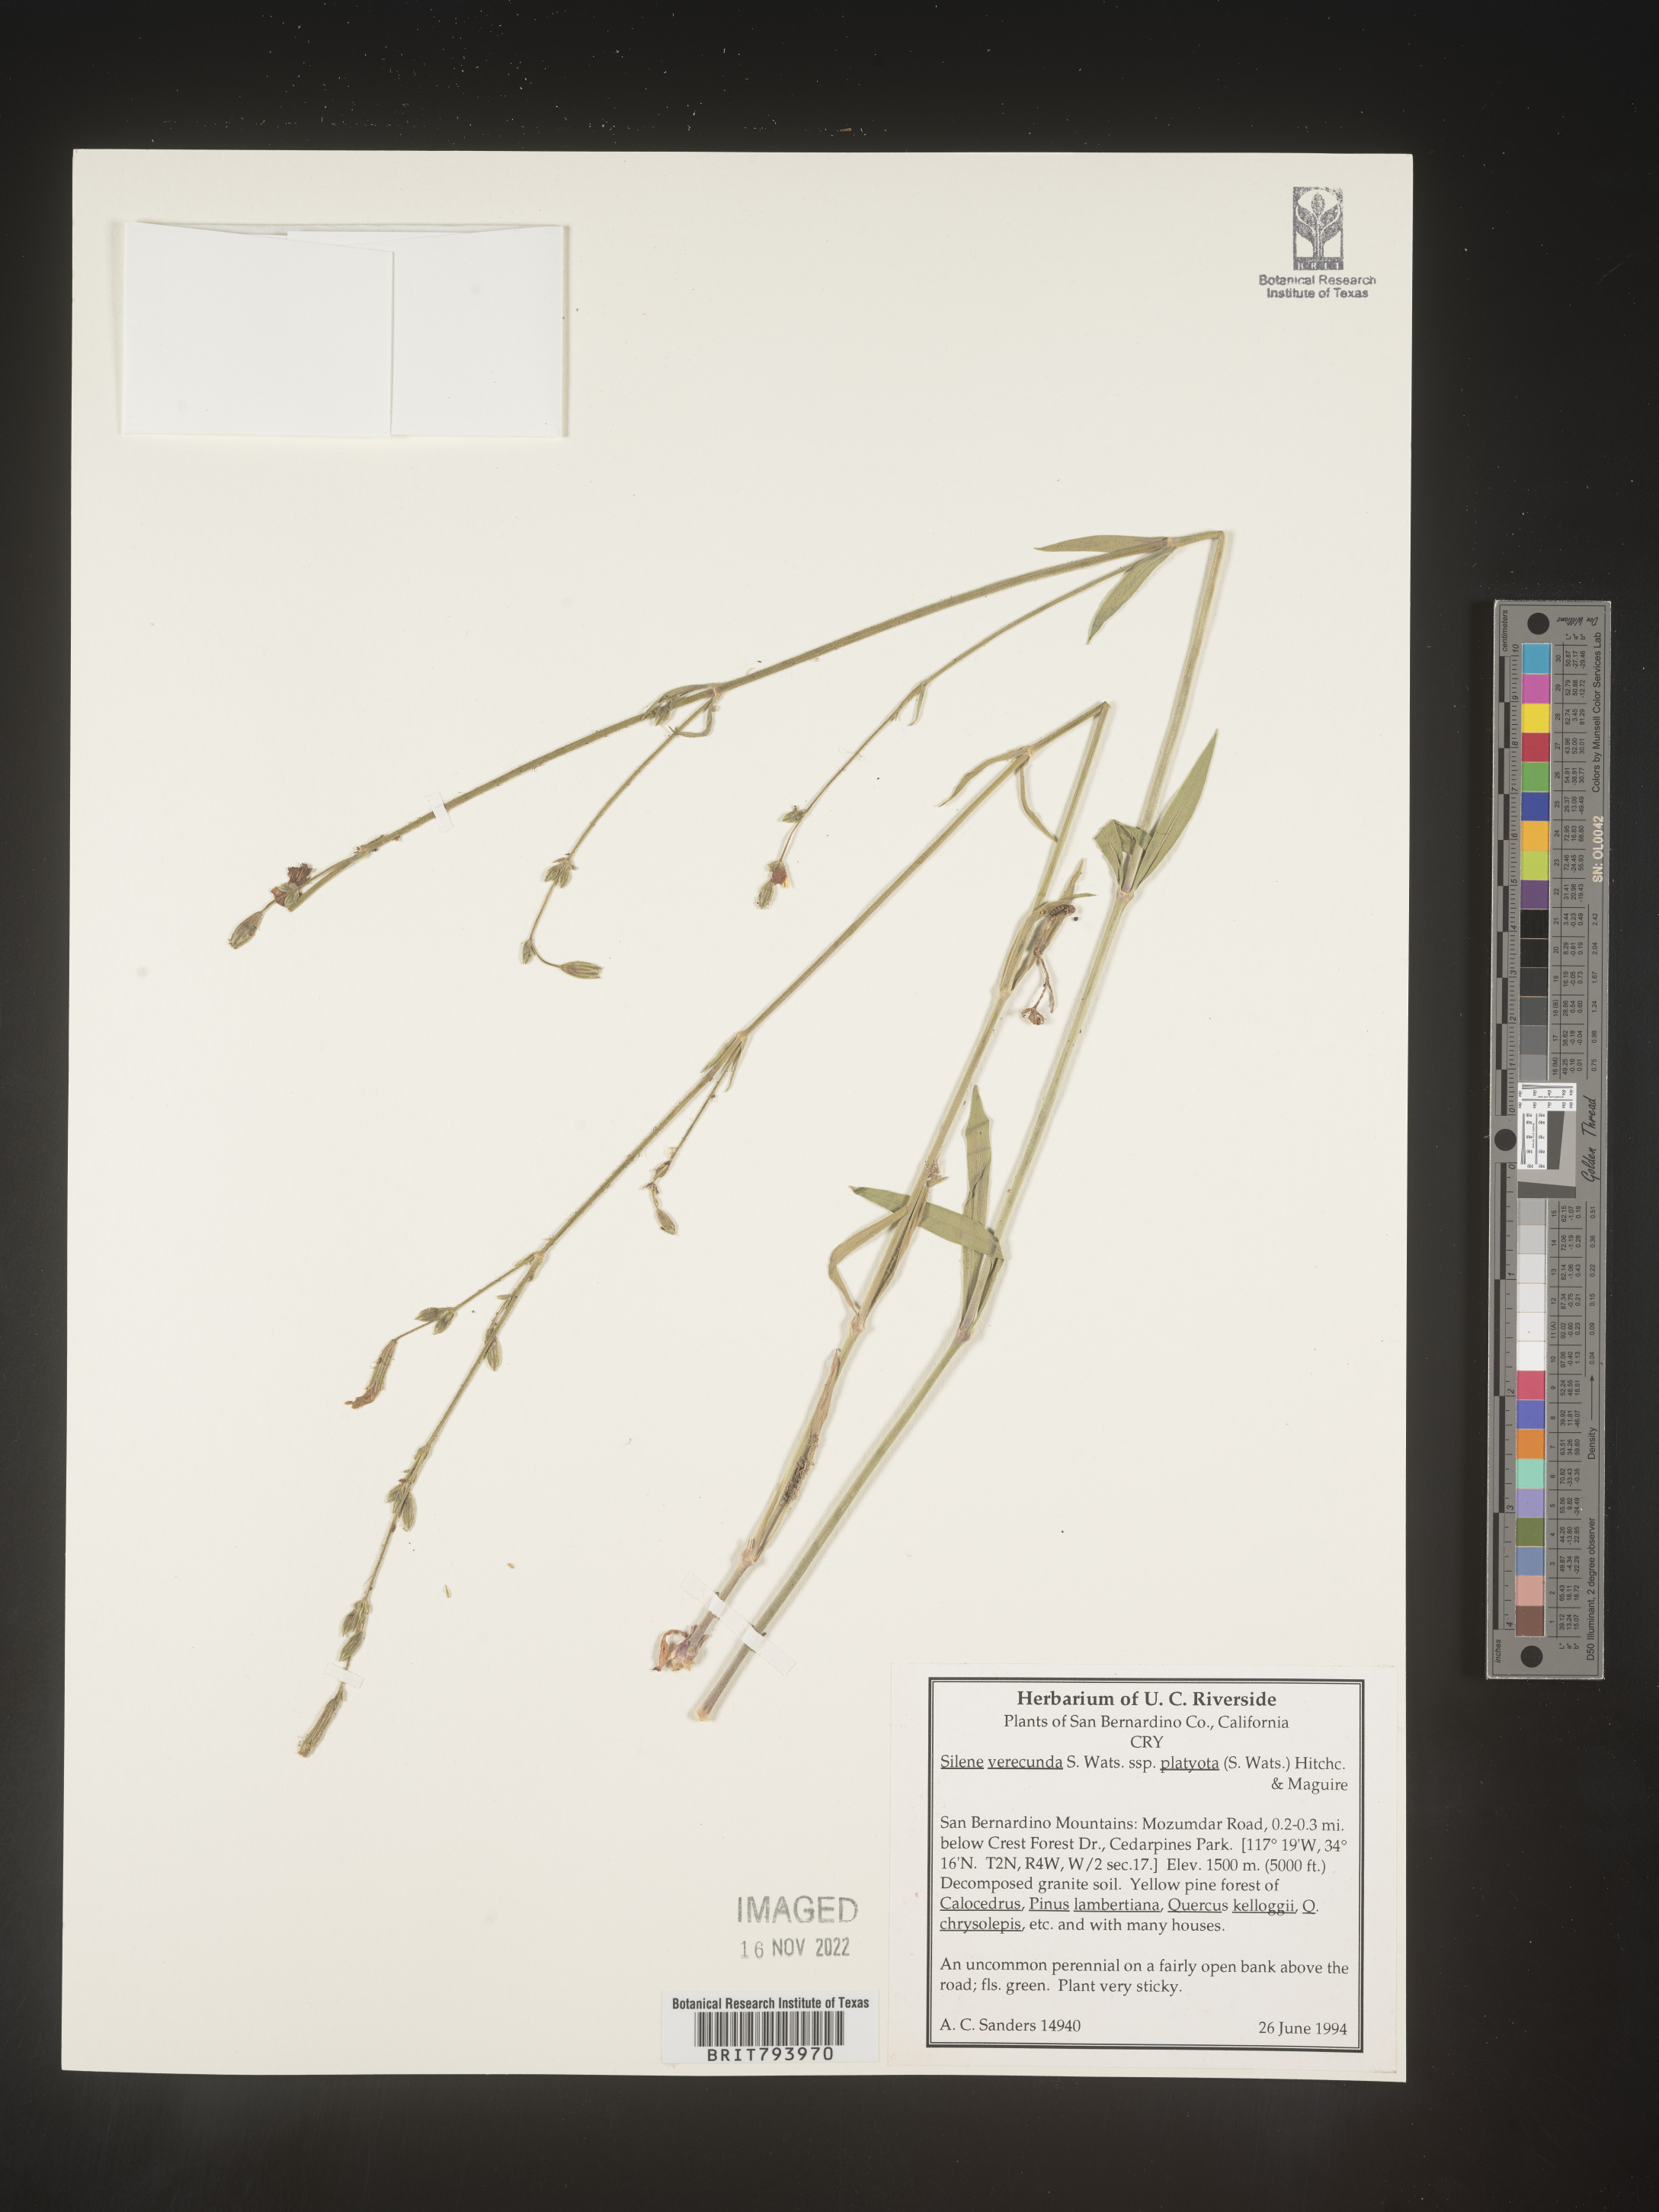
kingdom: Plantae
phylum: Tracheophyta
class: Magnoliopsida
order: Caryophyllales
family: Caryophyllaceae
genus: Silene
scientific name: Silene verecunda
